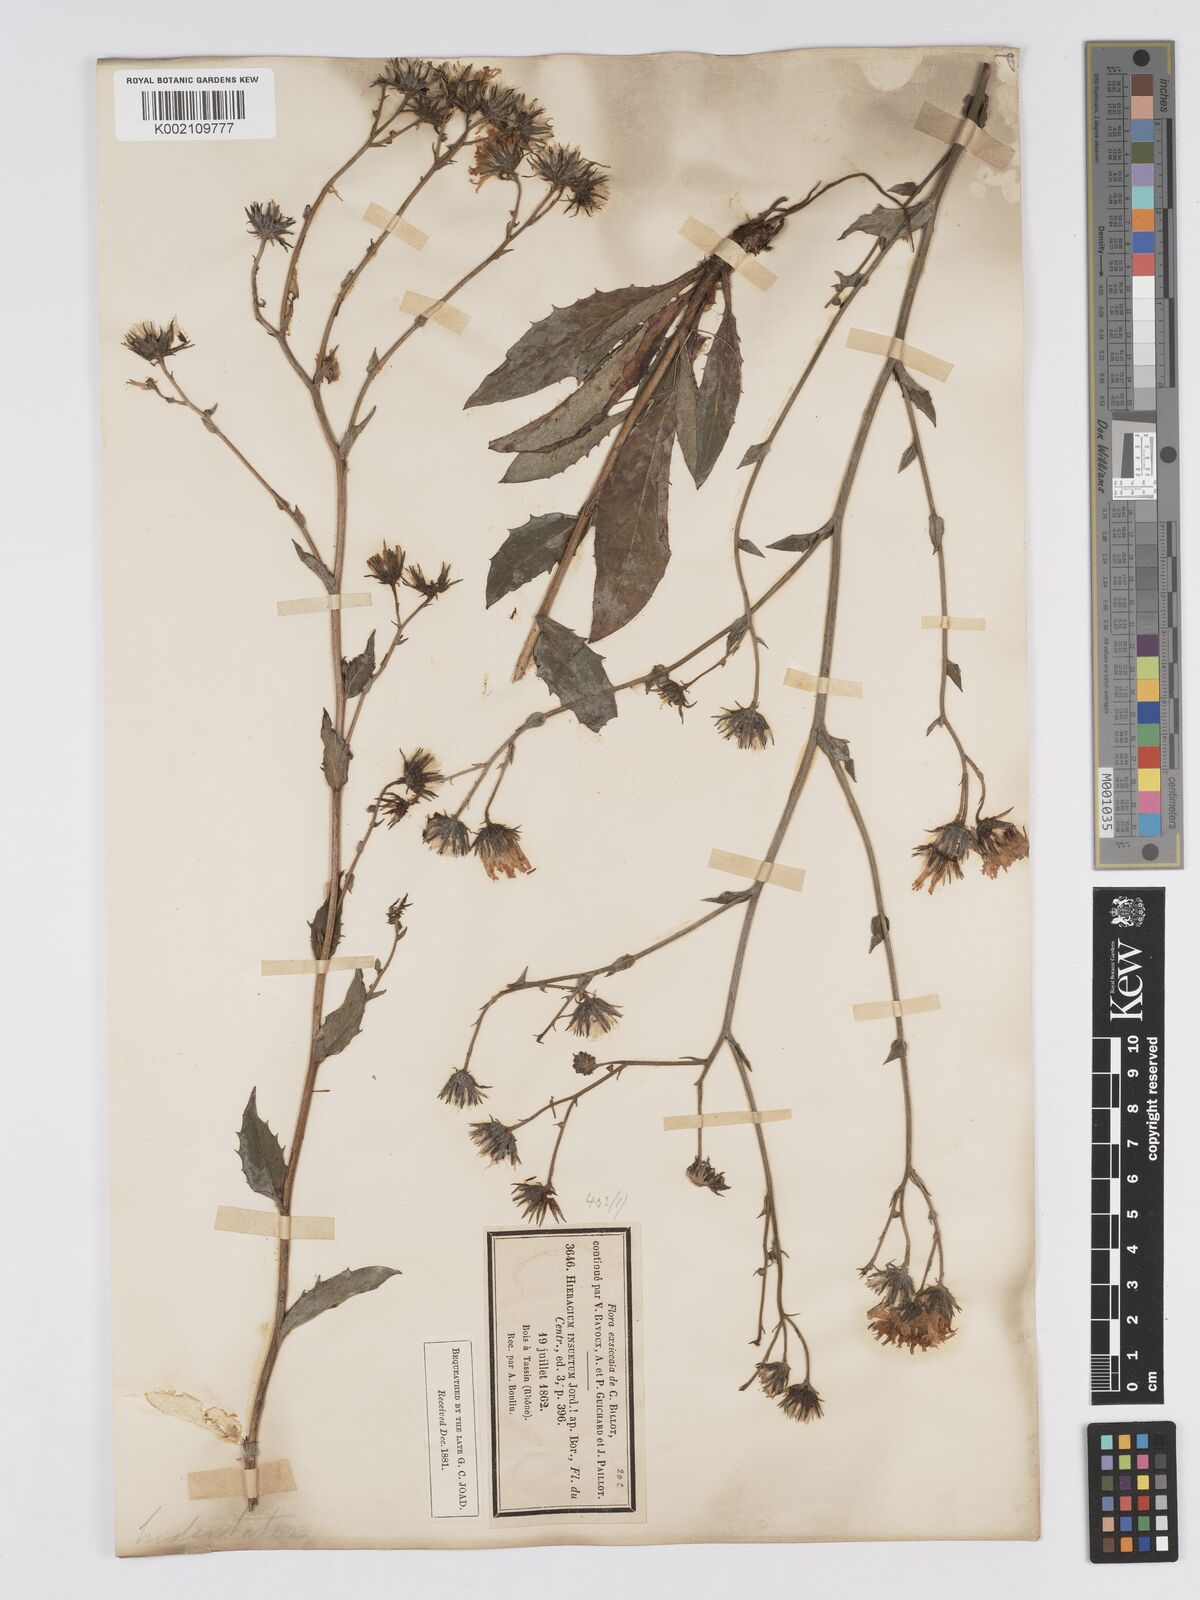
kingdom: Plantae
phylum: Tracheophyta
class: Magnoliopsida
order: Asterales
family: Asteraceae
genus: Hieracium
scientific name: Hieracium australe
